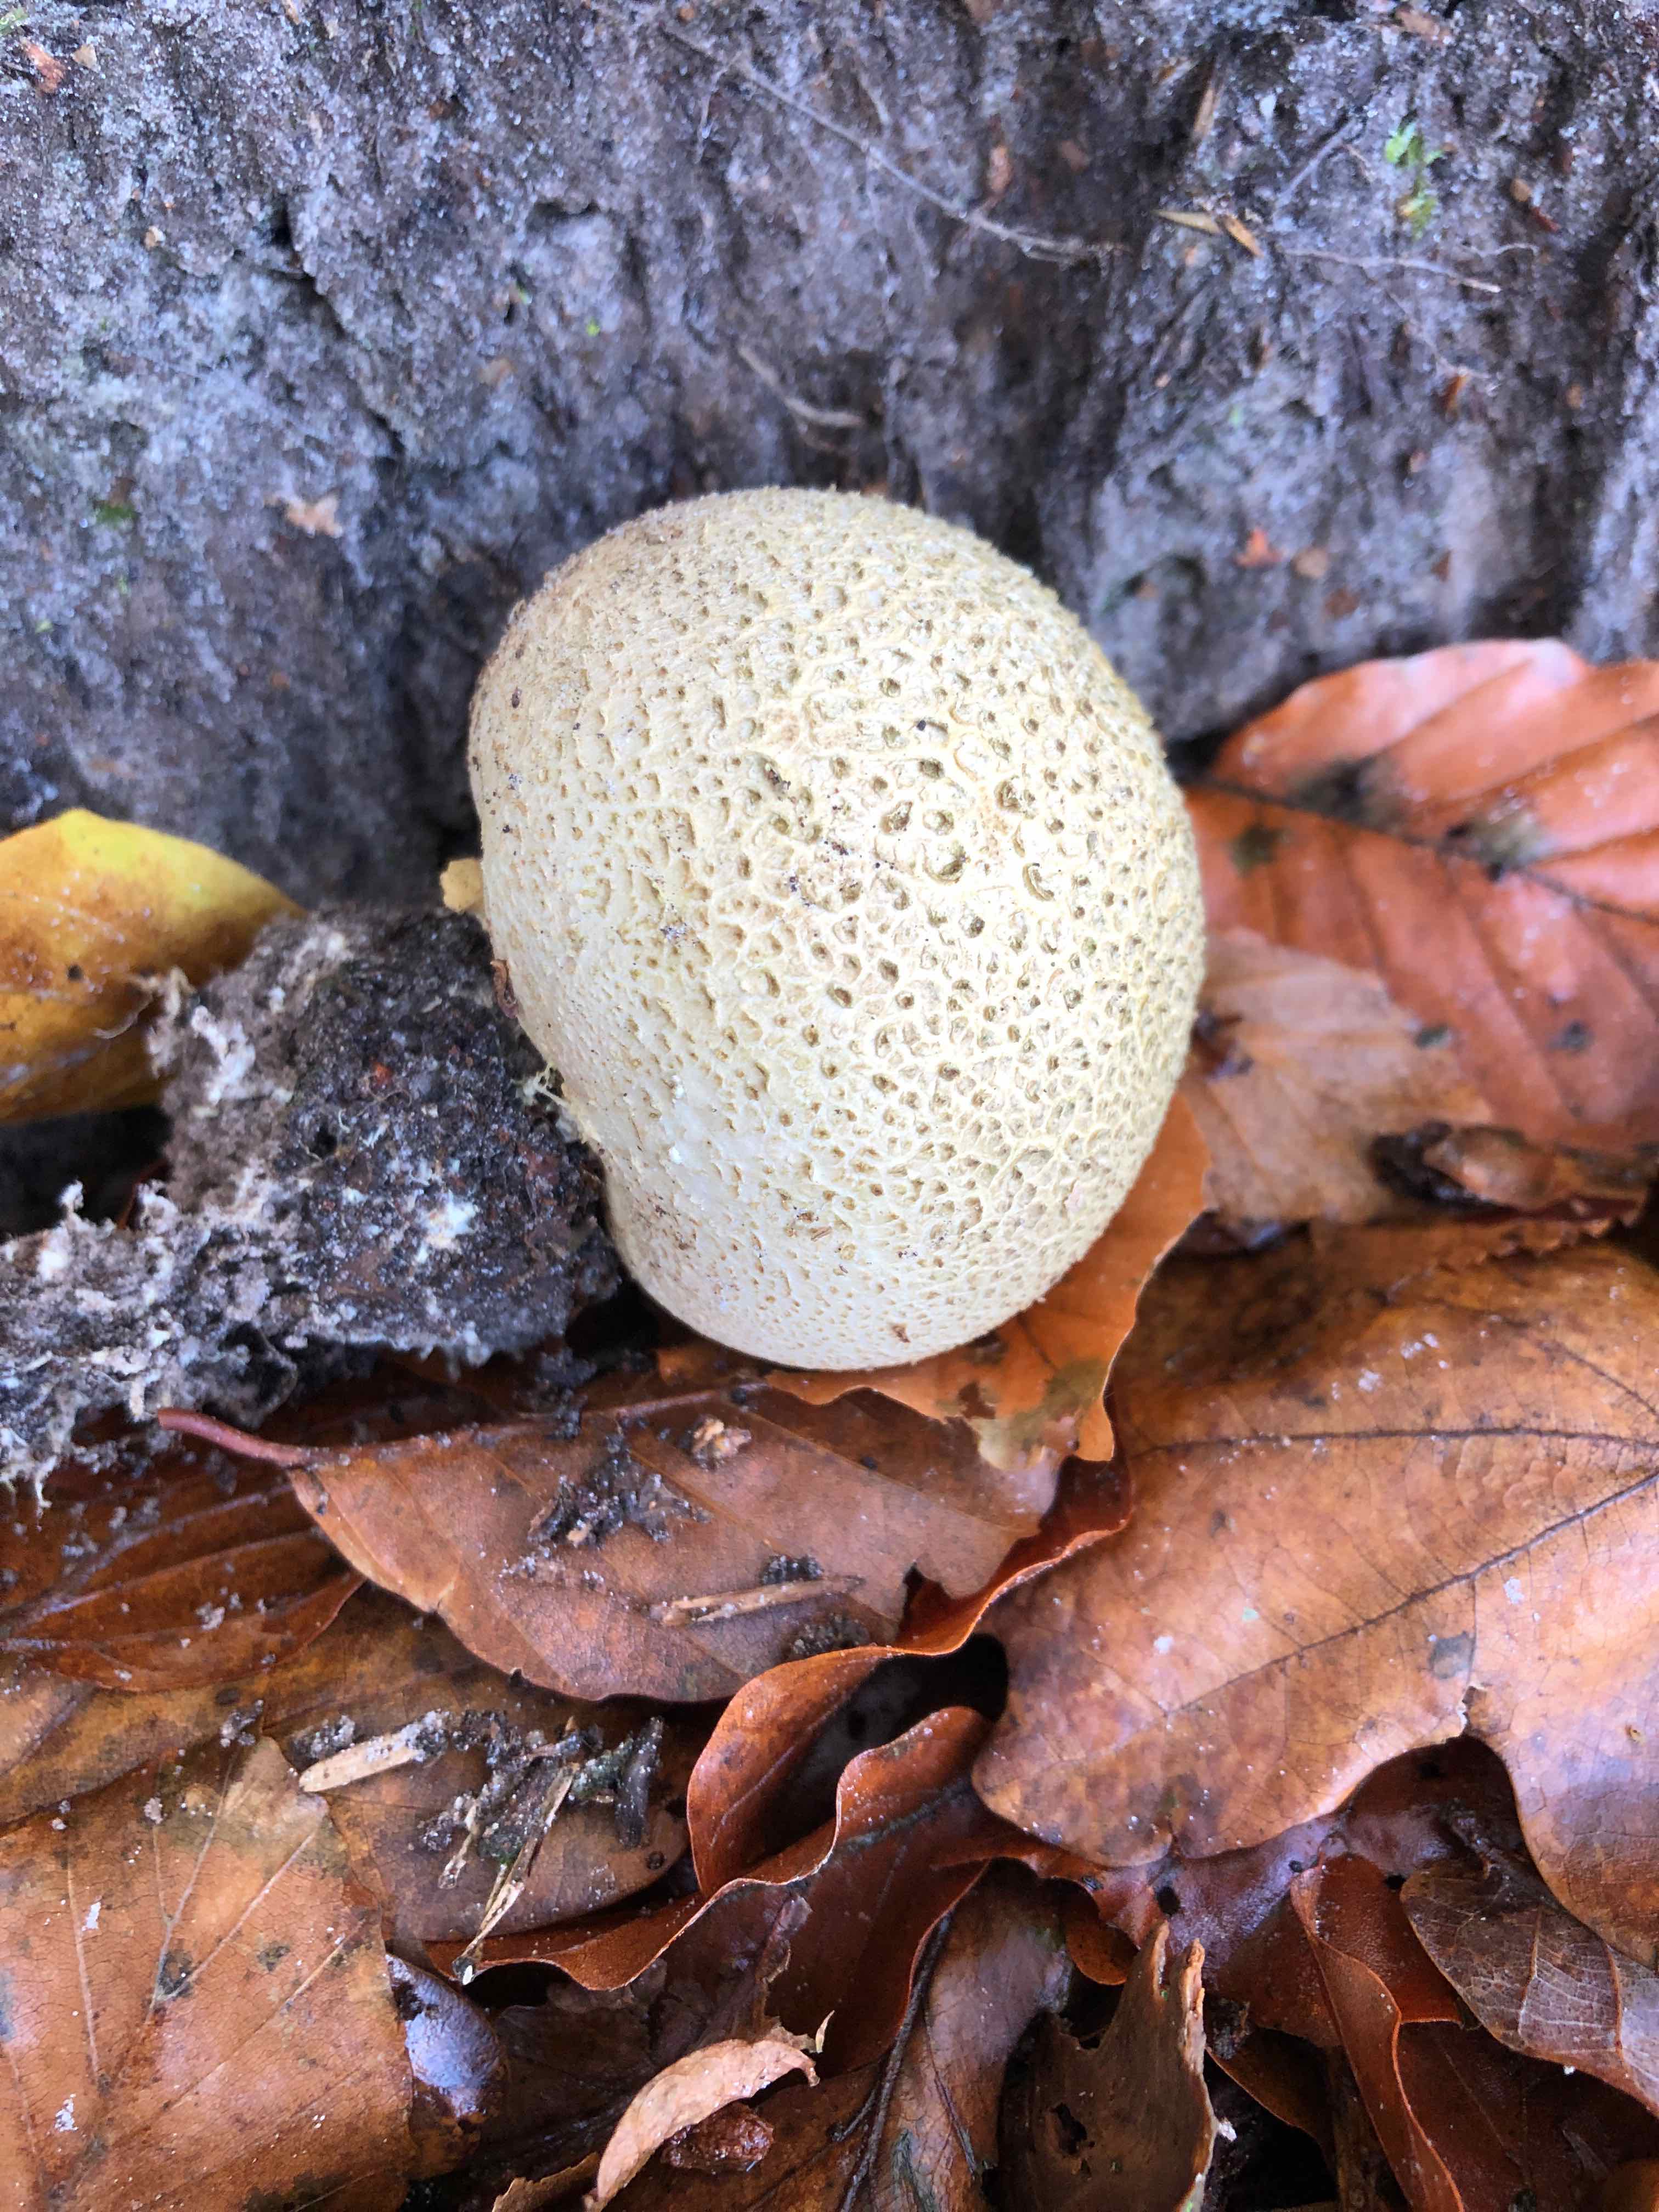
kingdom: Fungi
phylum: Basidiomycota
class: Agaricomycetes
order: Boletales
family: Sclerodermataceae
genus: Scleroderma
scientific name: Scleroderma citrinum
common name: almindelig bruskbold
